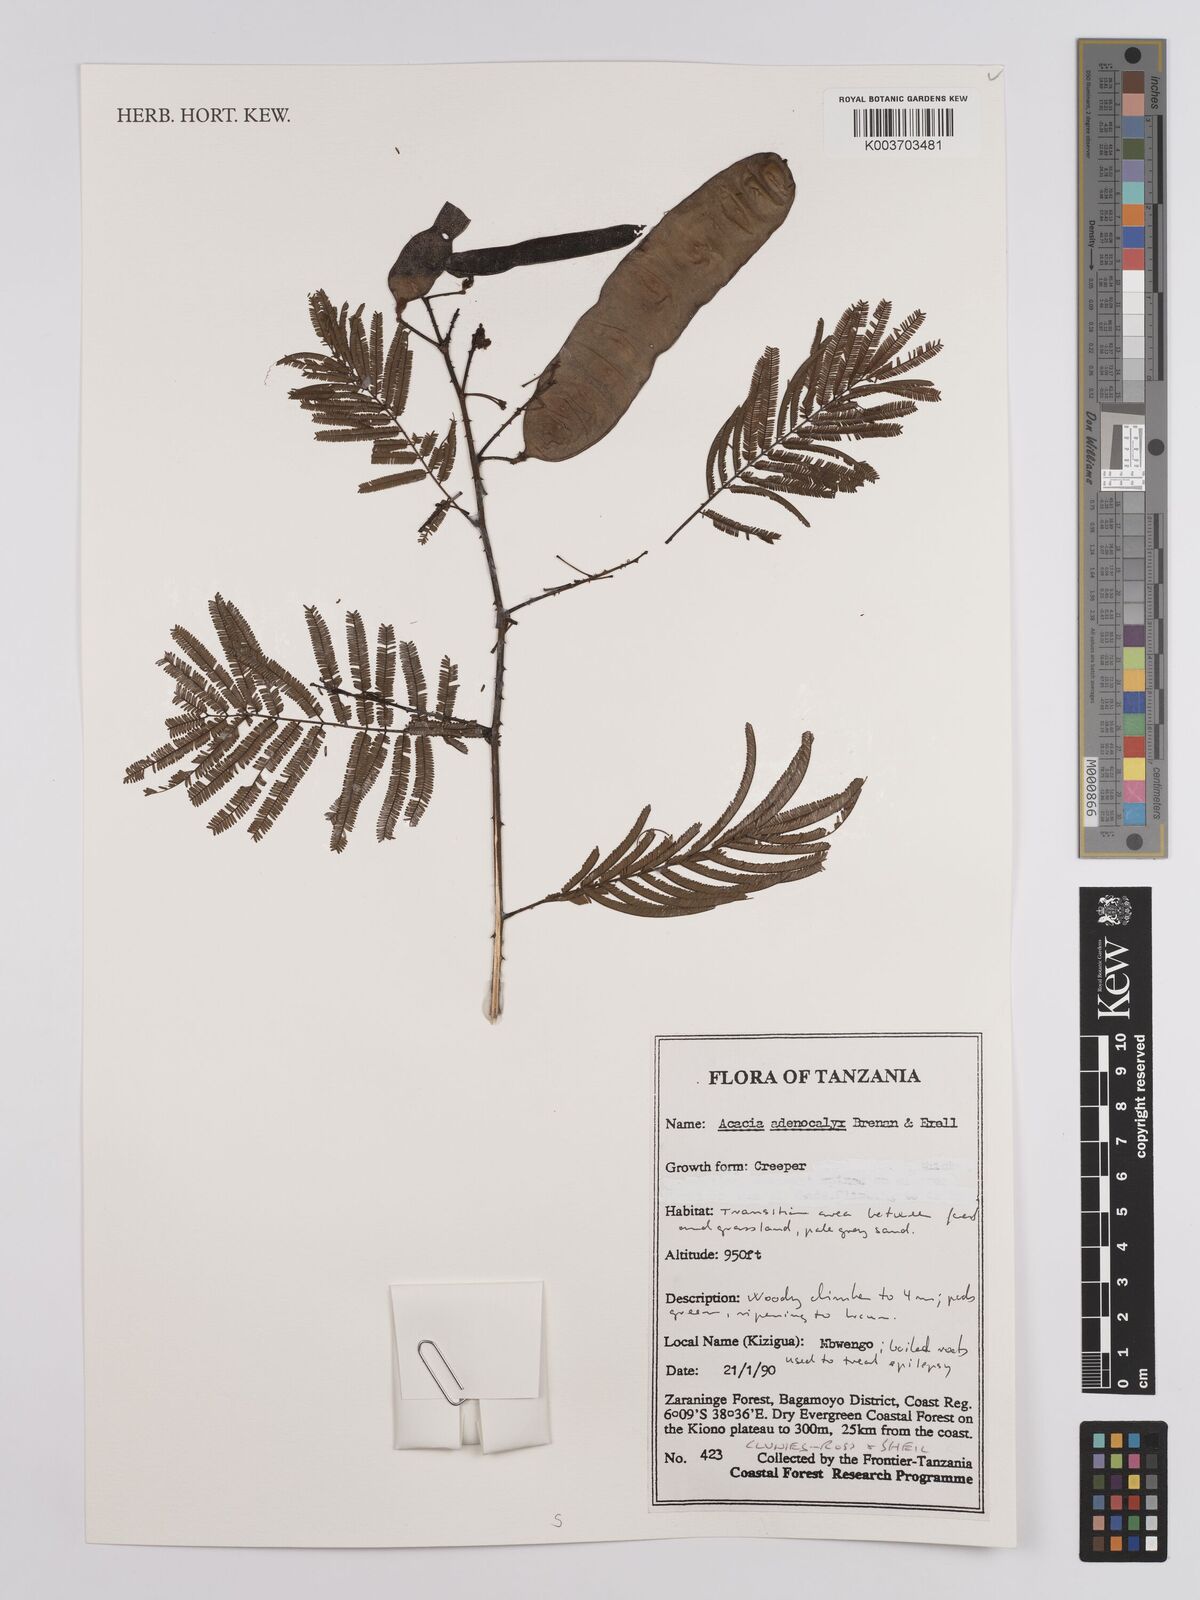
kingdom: Plantae
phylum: Tracheophyta
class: Magnoliopsida
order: Fabales
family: Fabaceae
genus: Senegalia
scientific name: Senegalia adenocalyx
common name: Pfurura
